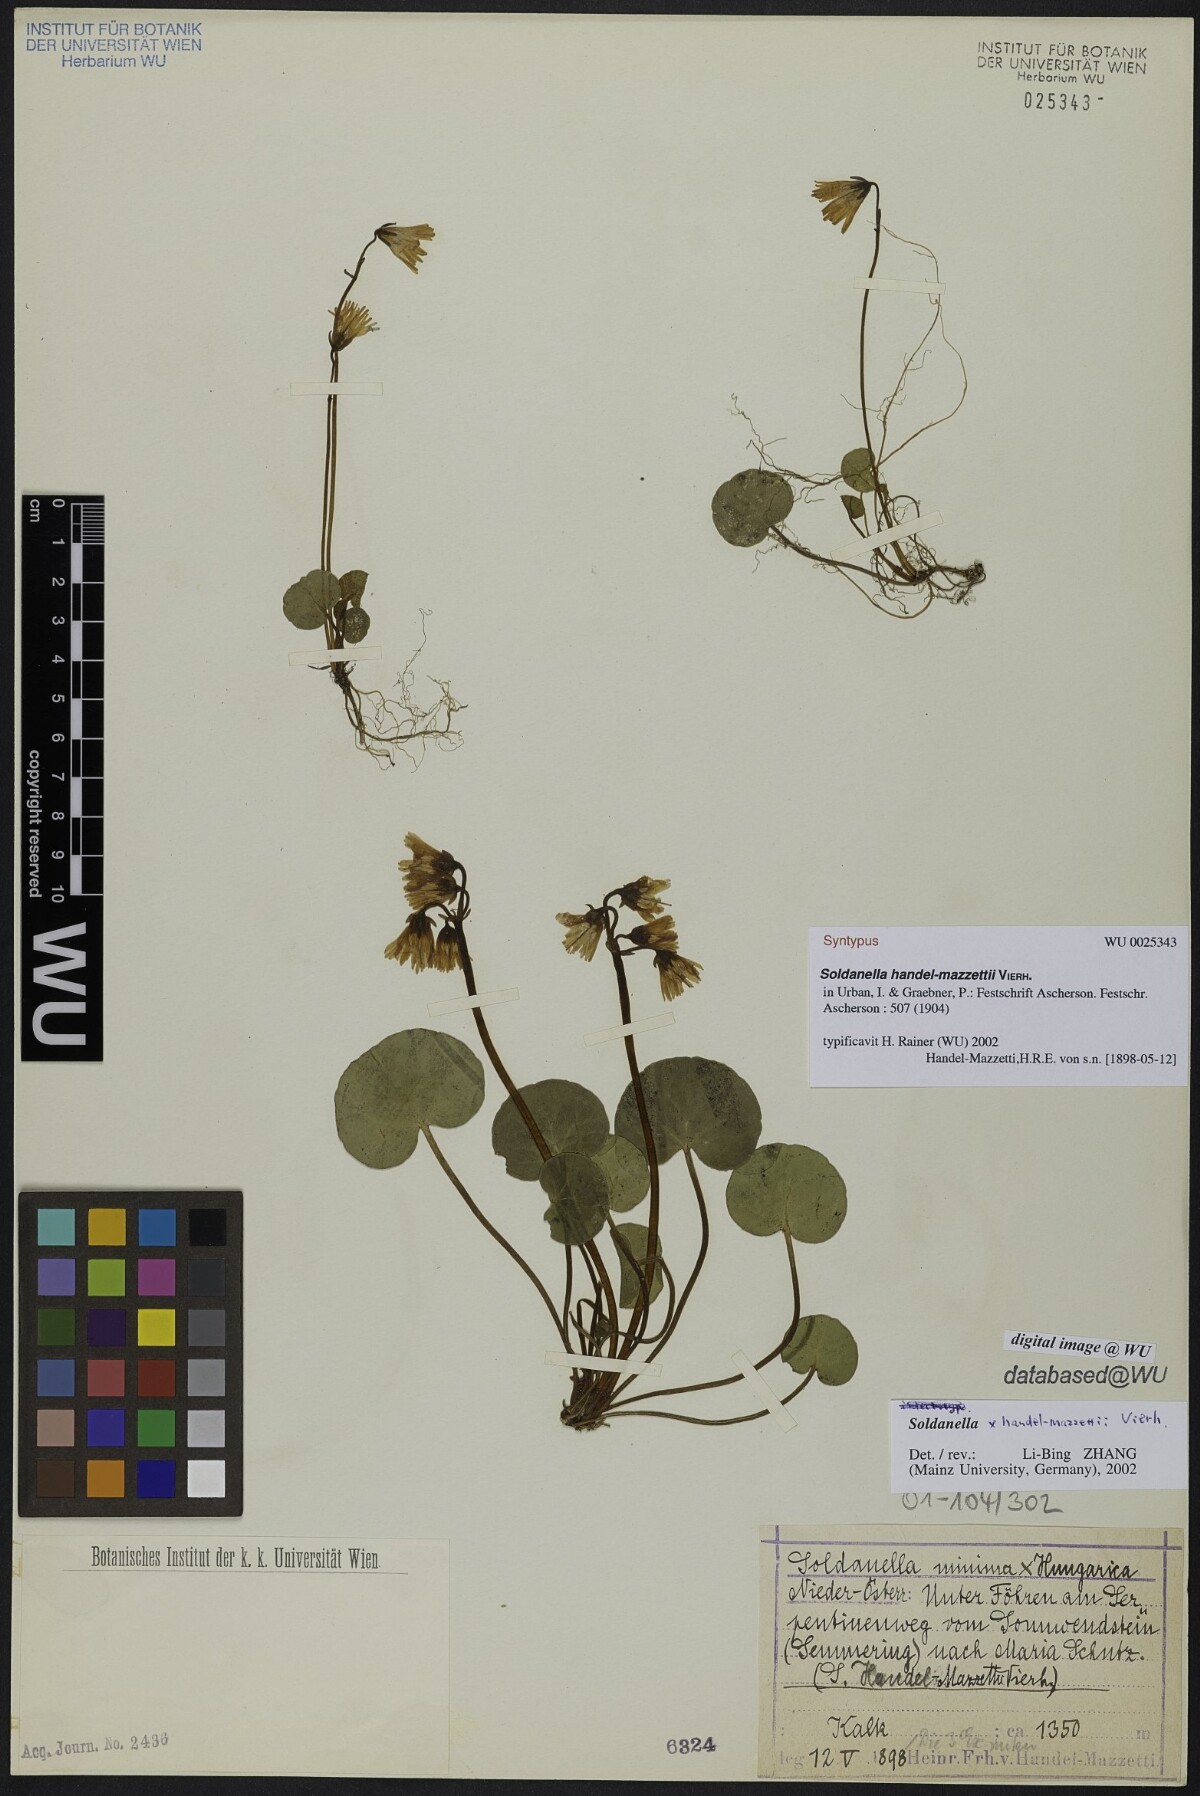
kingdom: Plantae
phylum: Tracheophyta
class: Magnoliopsida
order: Ericales
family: Primulaceae
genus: Soldanella
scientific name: Soldanella handel-mazzettii
